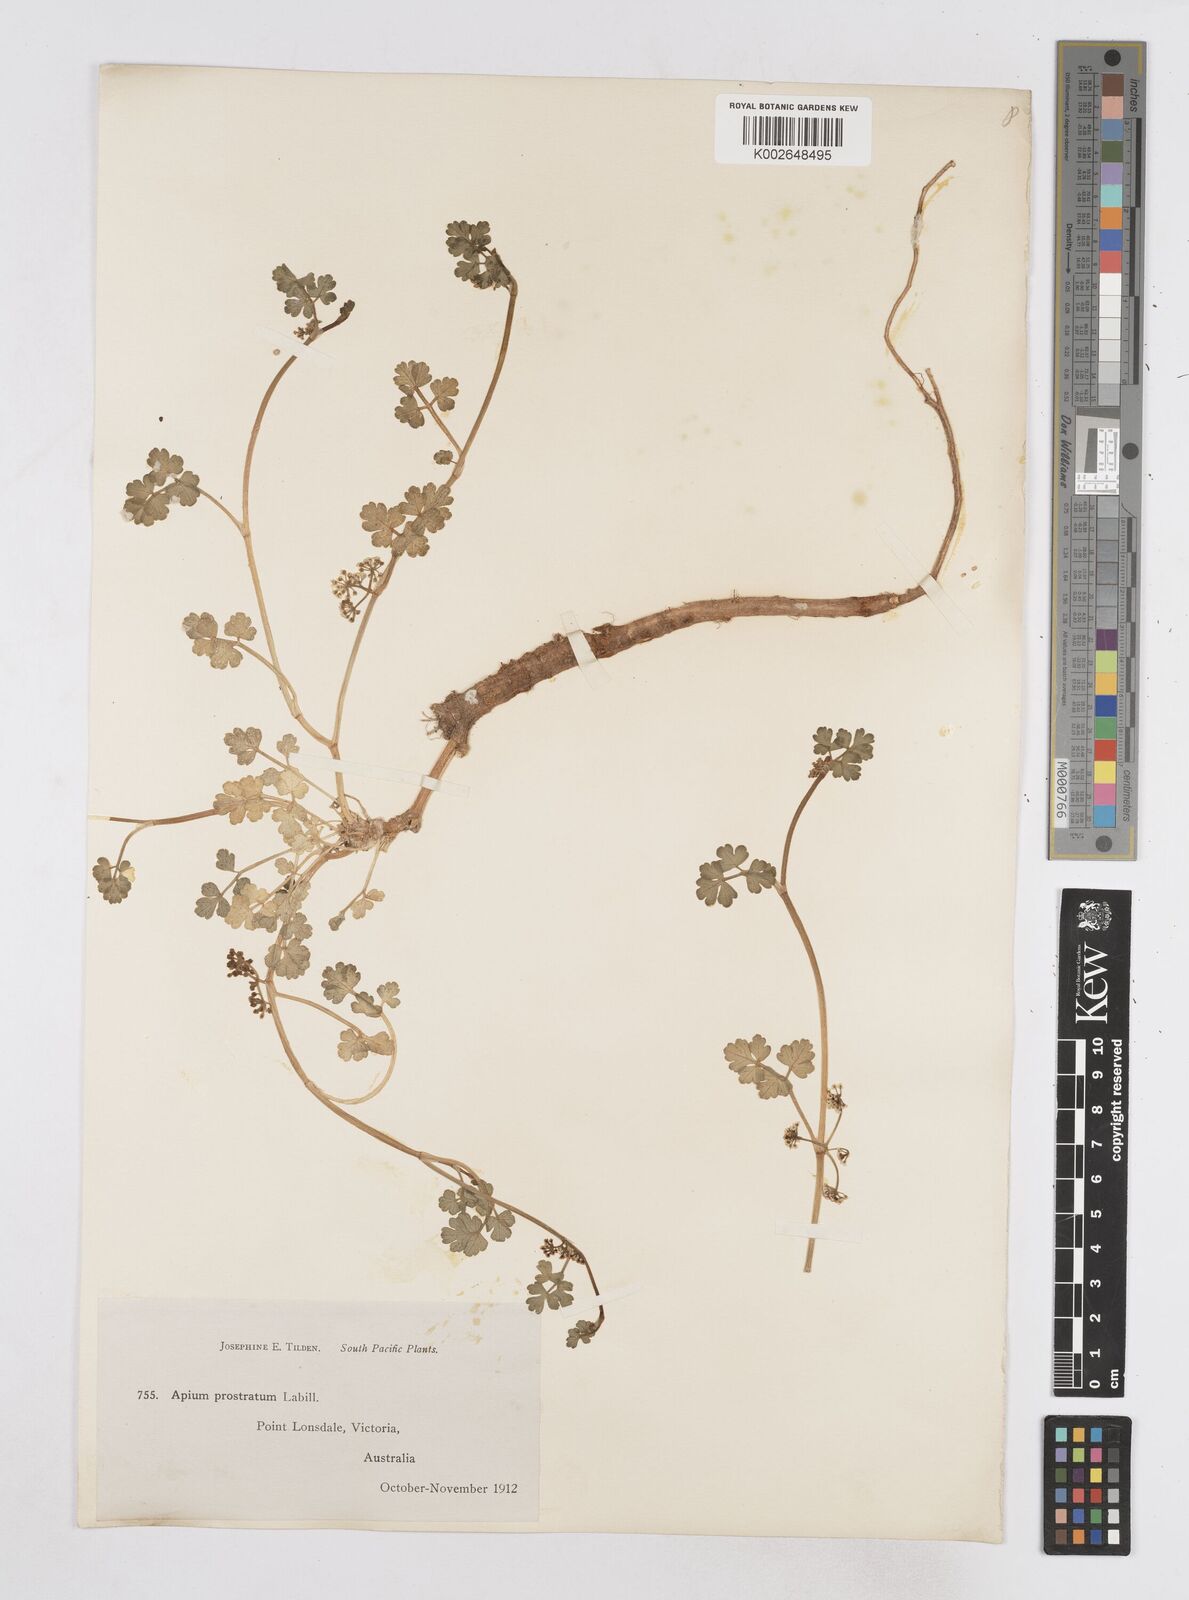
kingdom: Plantae
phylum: Tracheophyta
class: Magnoliopsida
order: Apiales
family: Apiaceae
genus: Apium
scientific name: Apium prostratum
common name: Prostrate marshwort
